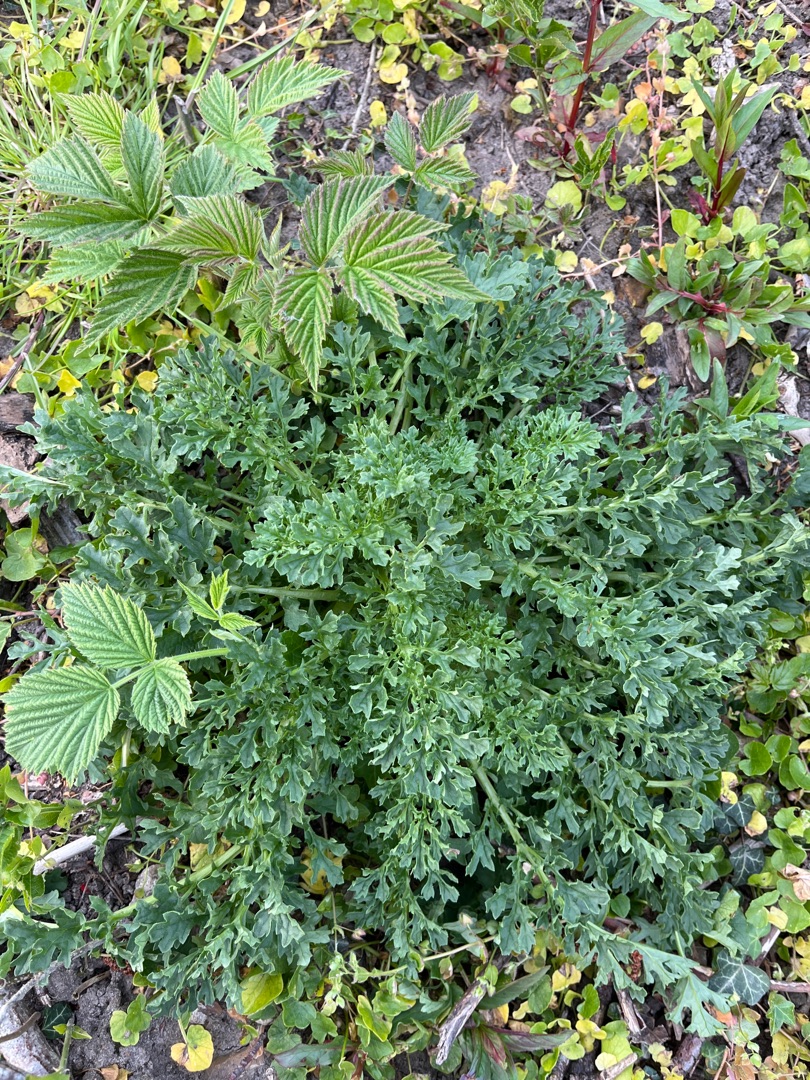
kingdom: Plantae
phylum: Tracheophyta
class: Magnoliopsida
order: Asterales
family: Asteraceae
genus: Jacobaea
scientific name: Jacobaea vulgaris
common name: Eng-brandbæger
